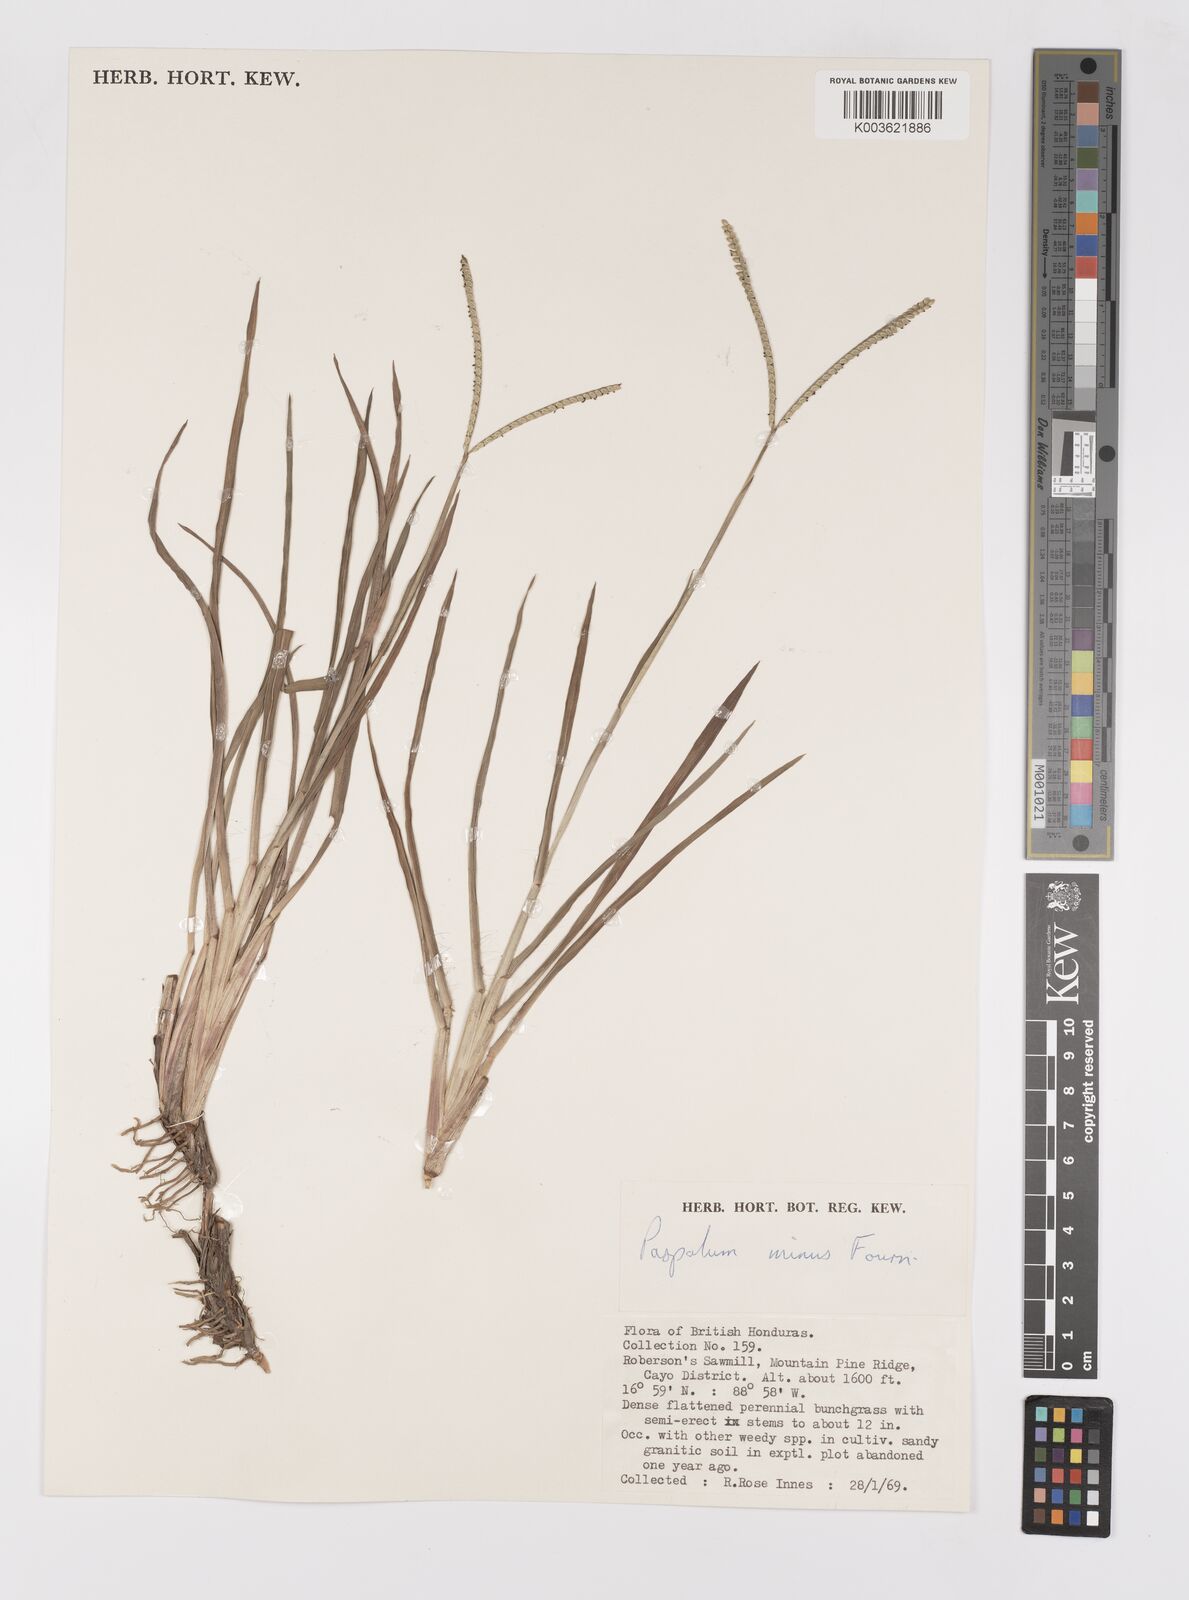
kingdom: Plantae
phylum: Tracheophyta
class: Liliopsida
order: Poales
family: Poaceae
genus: Paspalum
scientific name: Paspalum minus
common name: Matted paspalum
